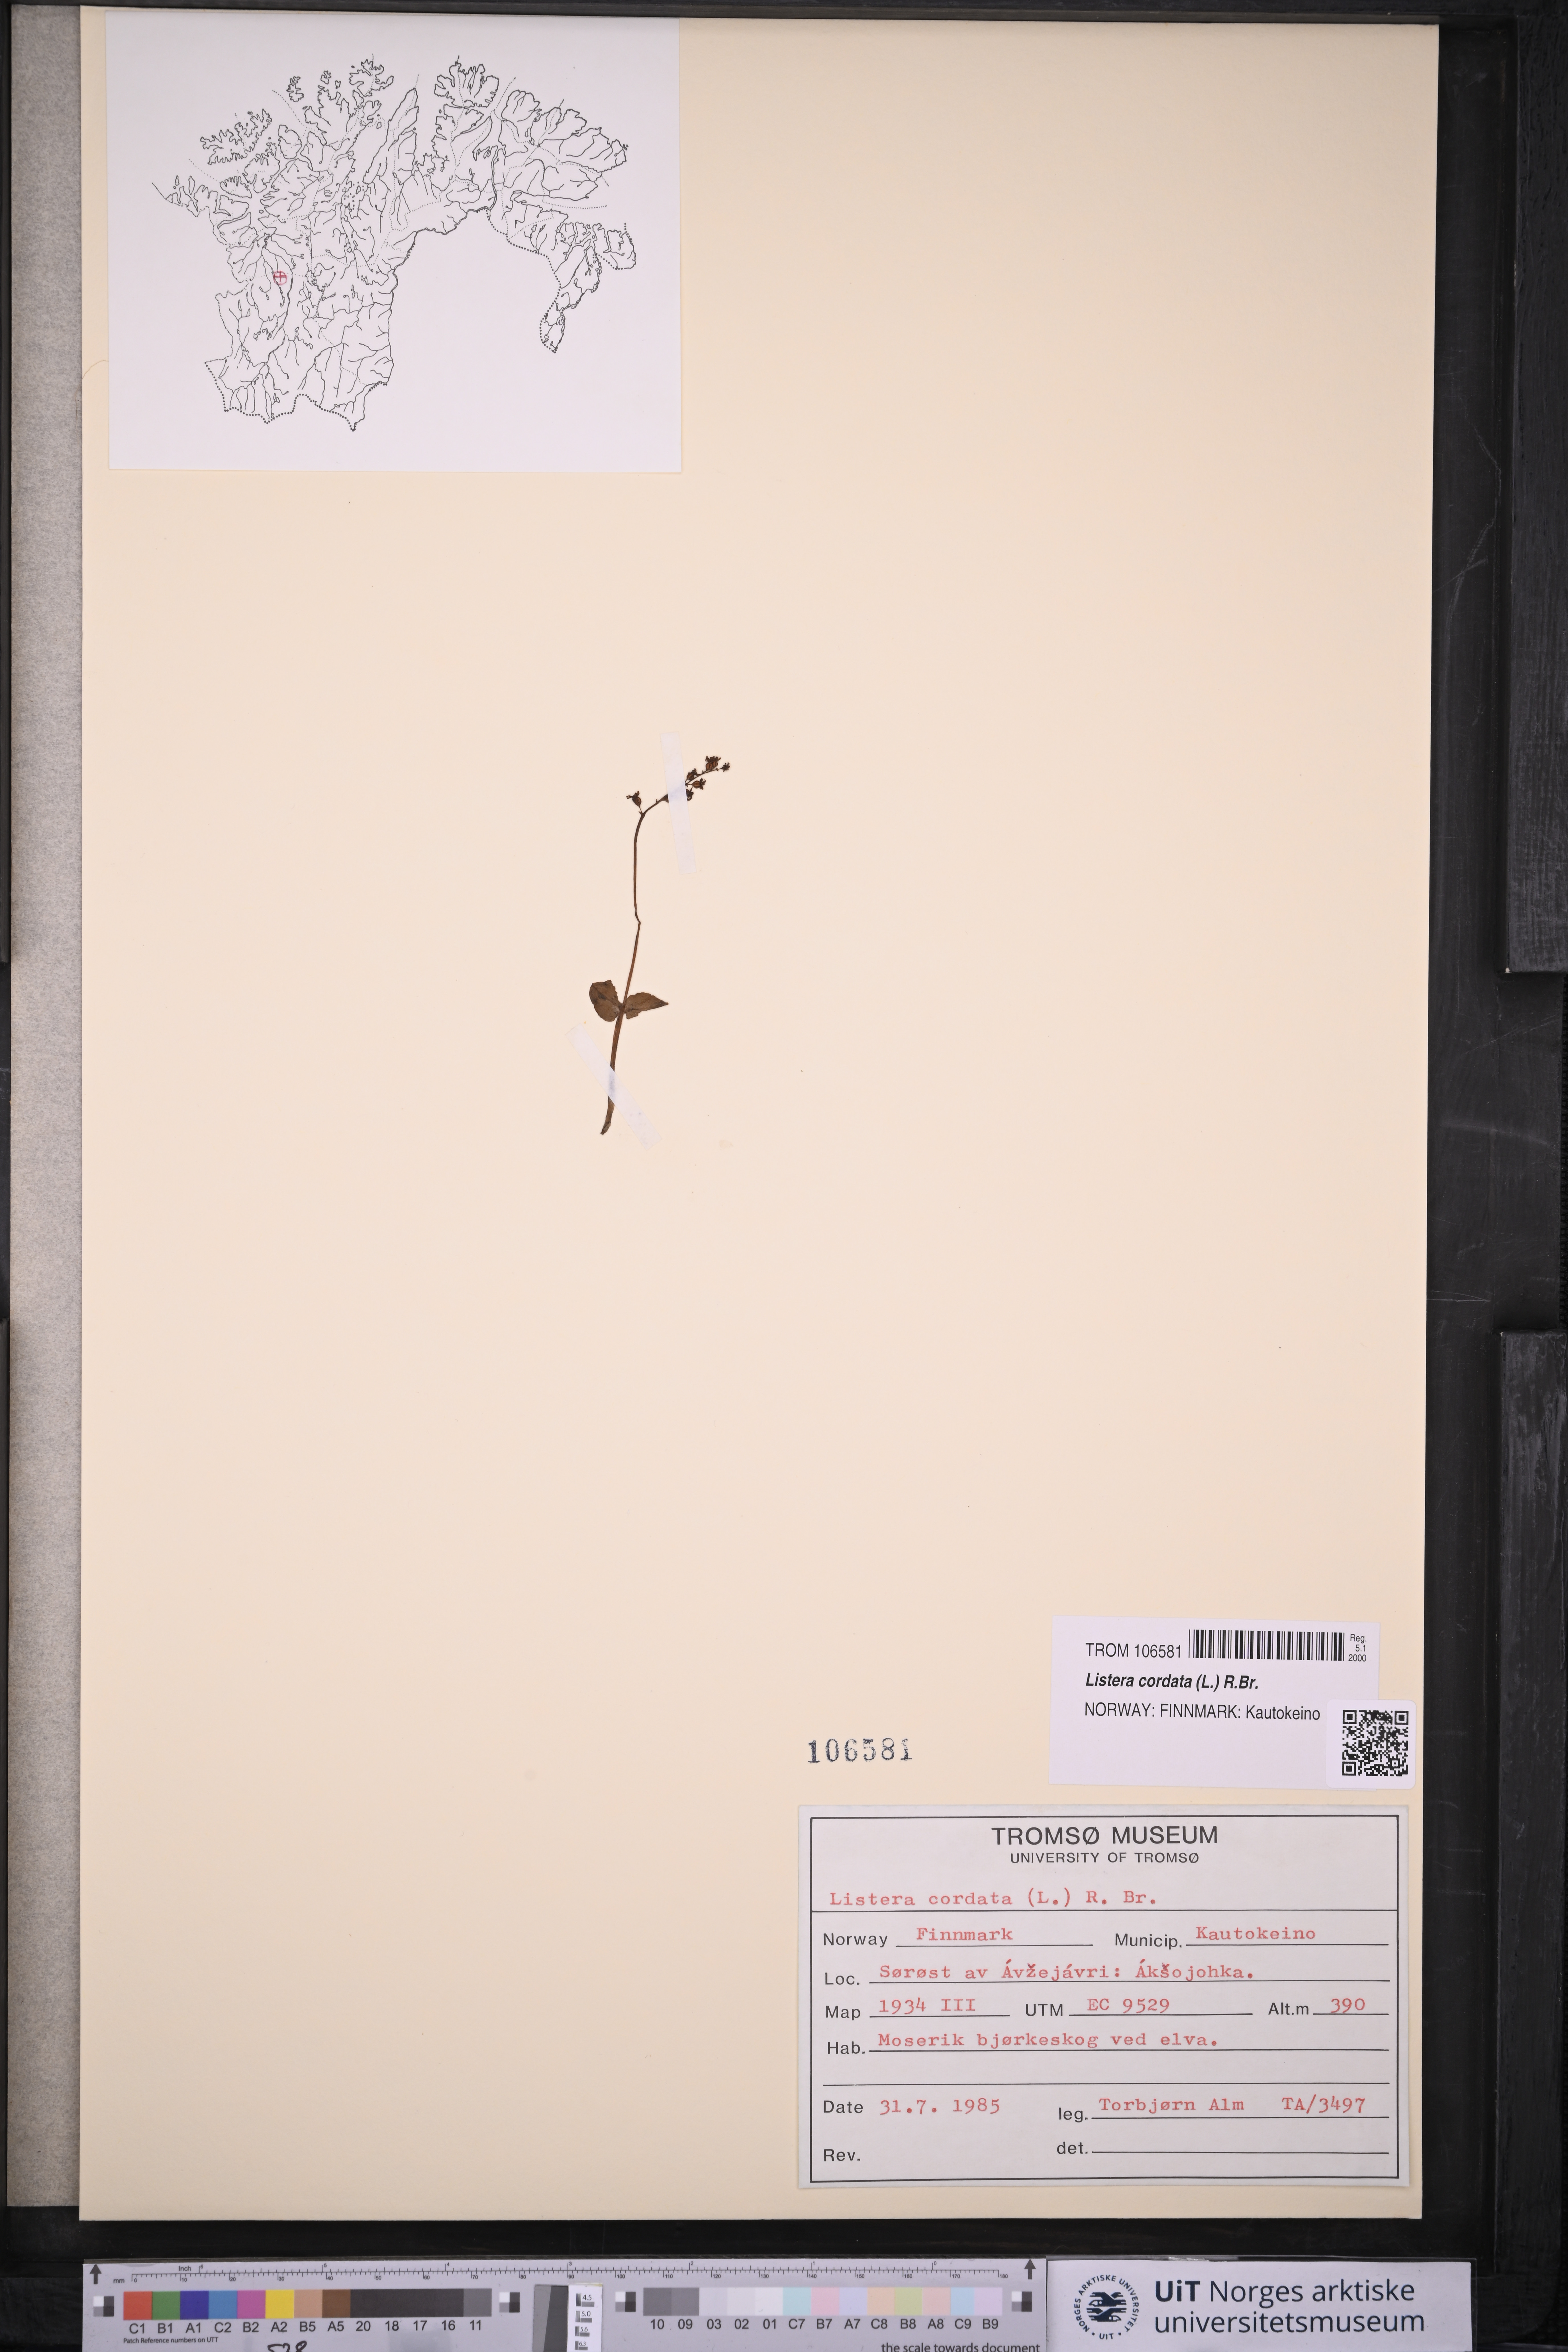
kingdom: Plantae
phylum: Tracheophyta
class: Liliopsida
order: Asparagales
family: Orchidaceae
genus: Neottia
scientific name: Neottia cordata
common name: Lesser twayblade
